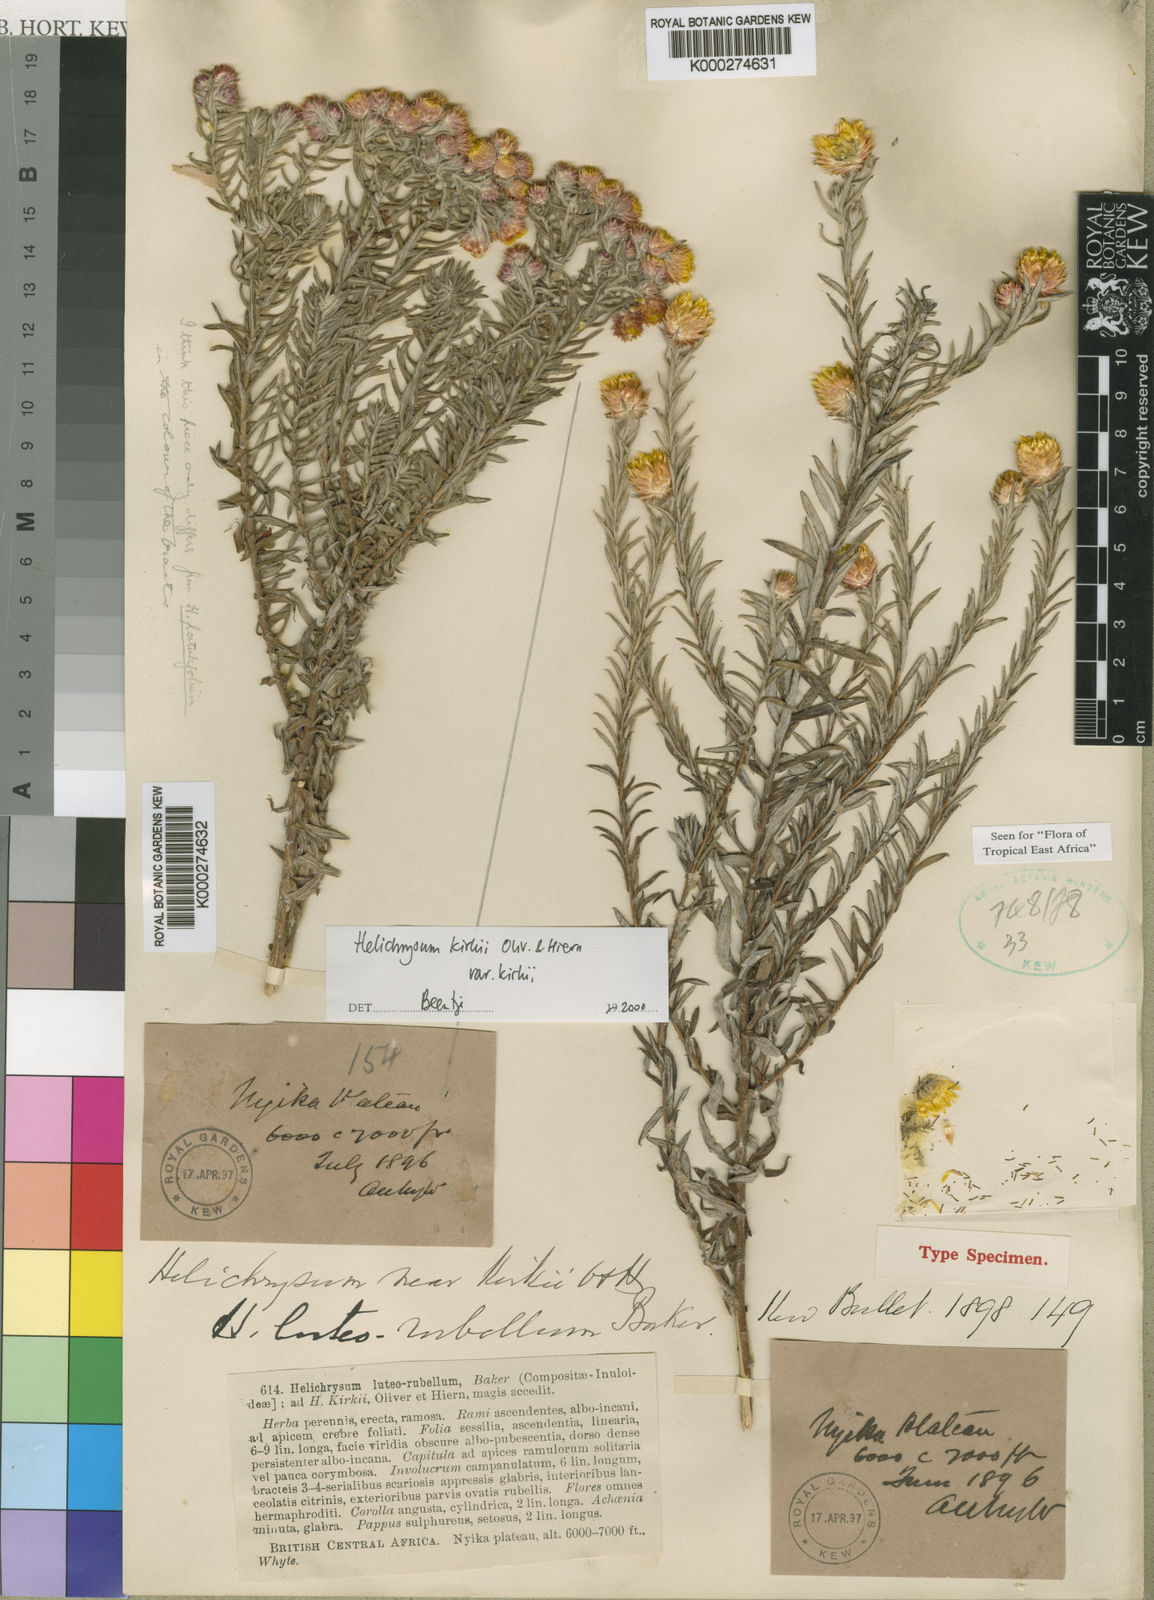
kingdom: Plantae
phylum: Tracheophyta
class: Magnoliopsida
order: Asterales
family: Asteraceae
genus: Helichrysum
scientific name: Helichrysum kirkii
